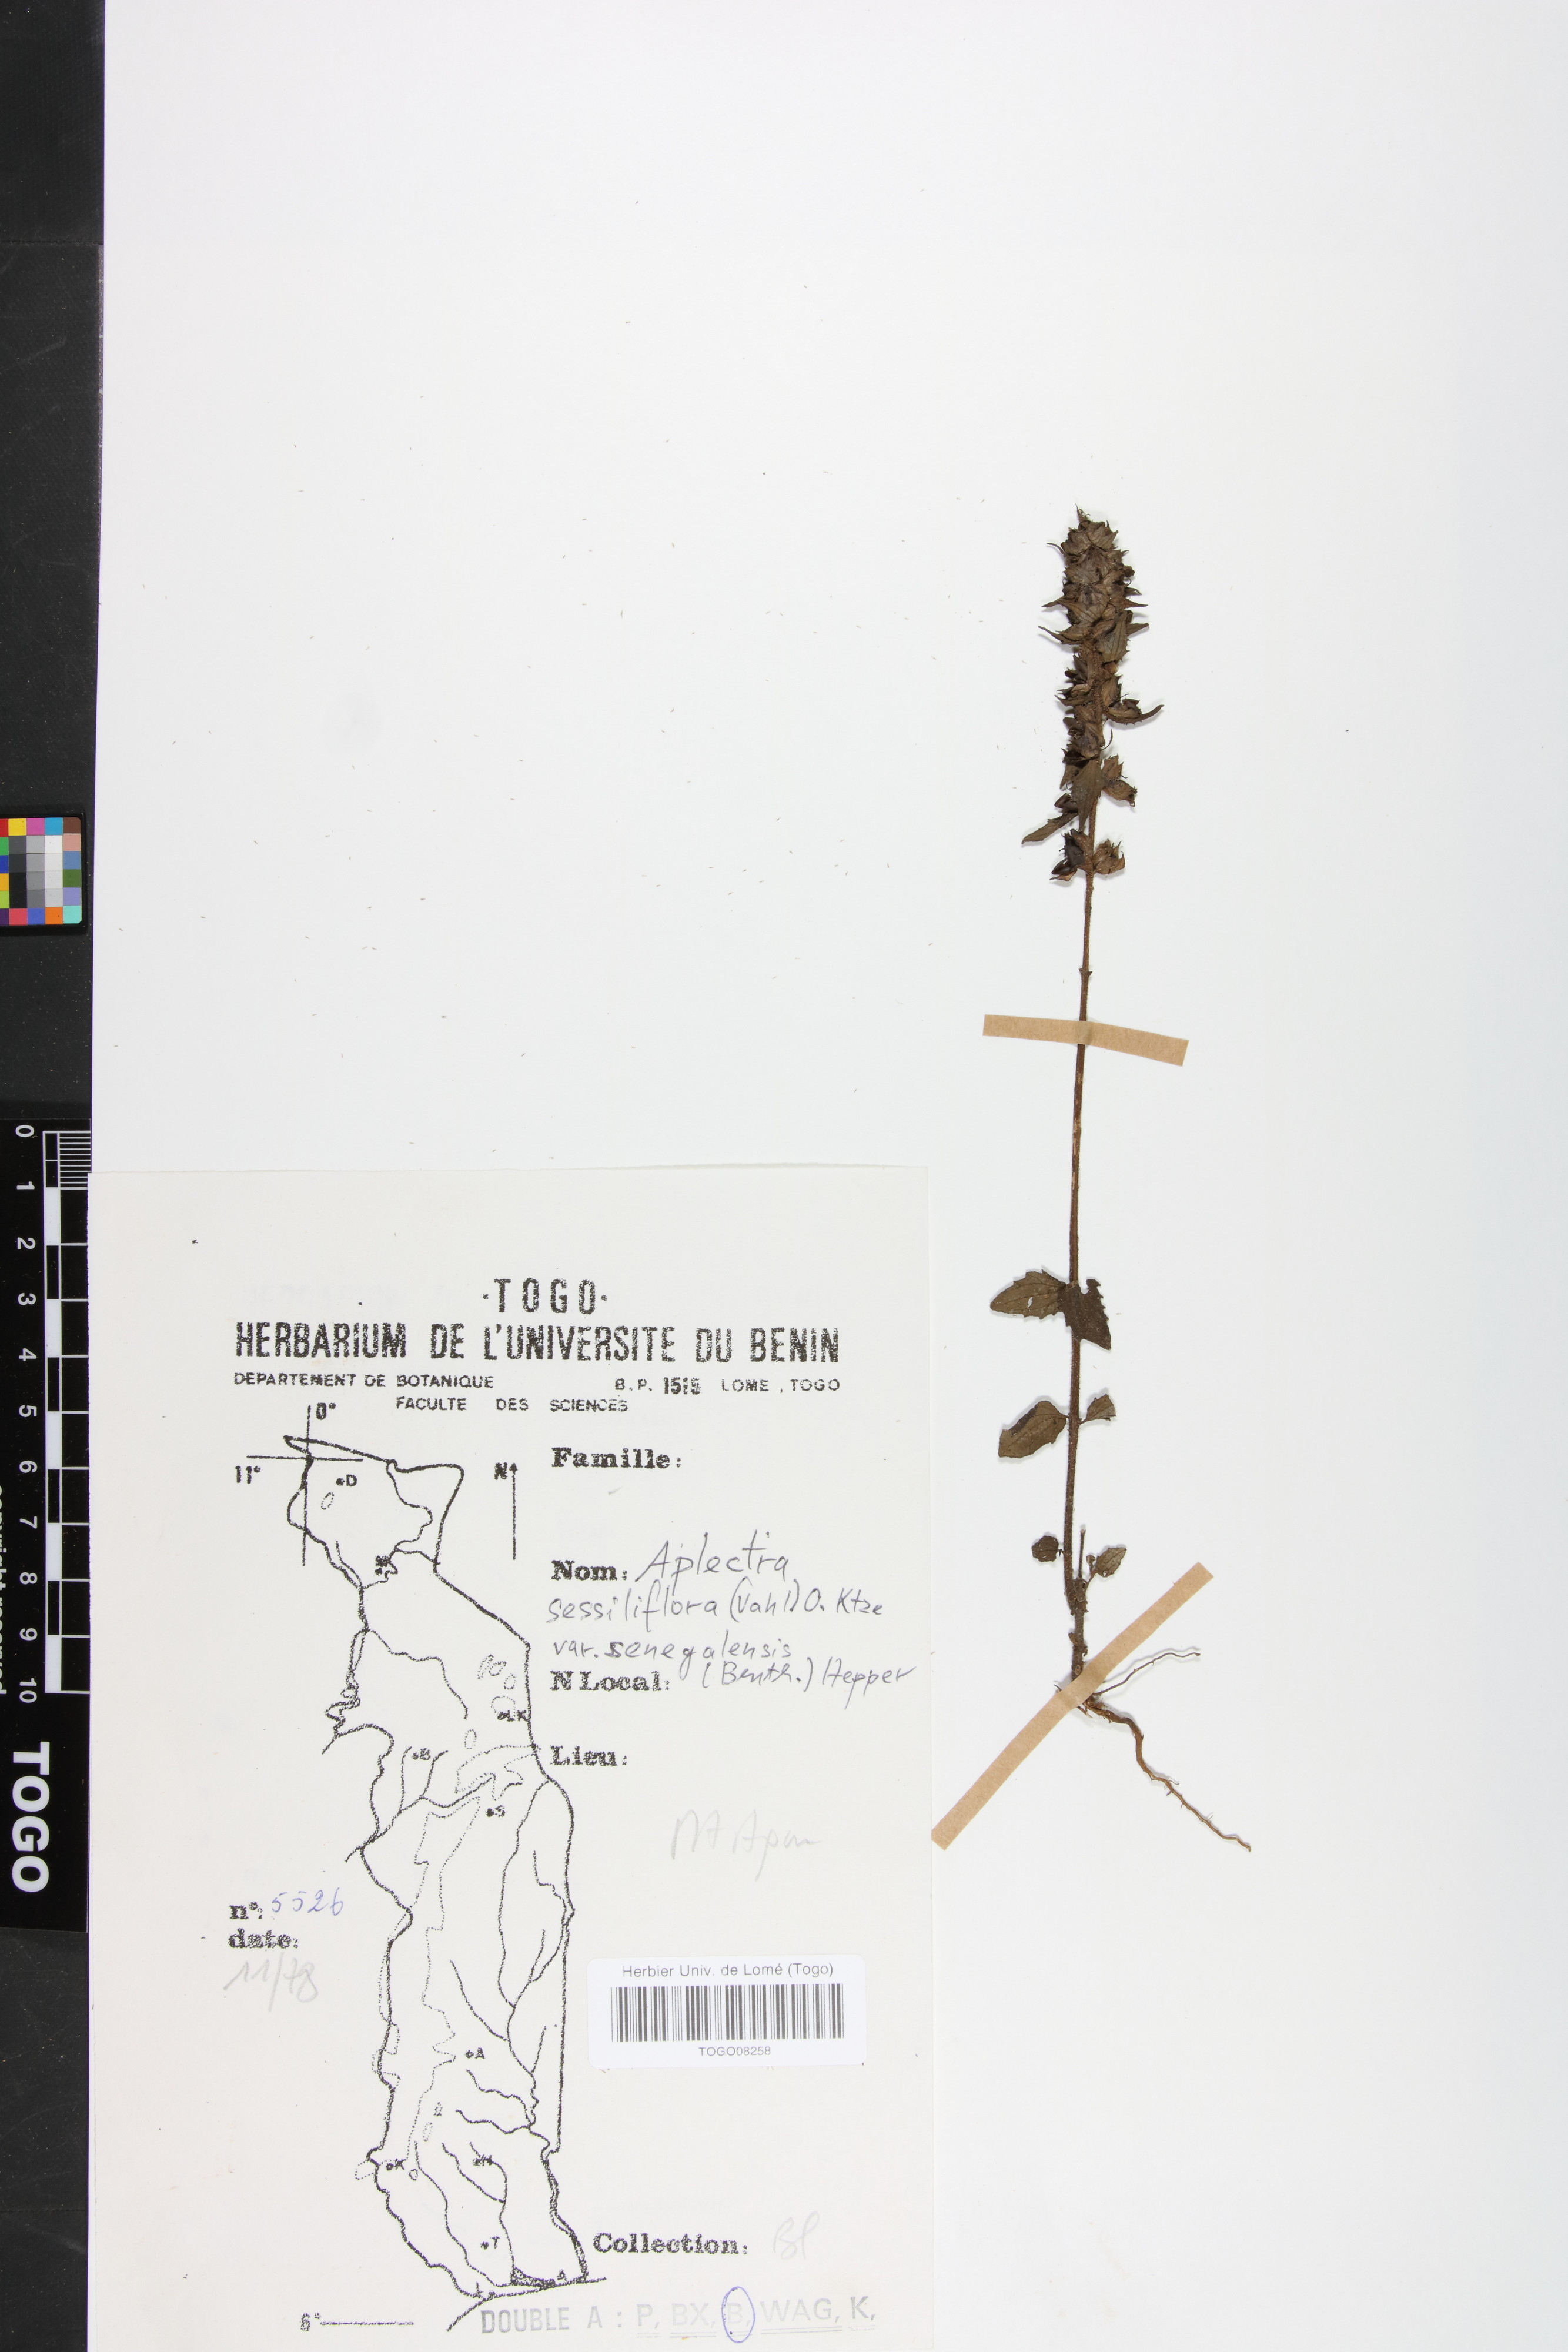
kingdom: Plantae
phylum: Tracheophyta
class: Magnoliopsida
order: Lamiales
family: Orobanchaceae
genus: Alectra
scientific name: Alectra sessiliflora
